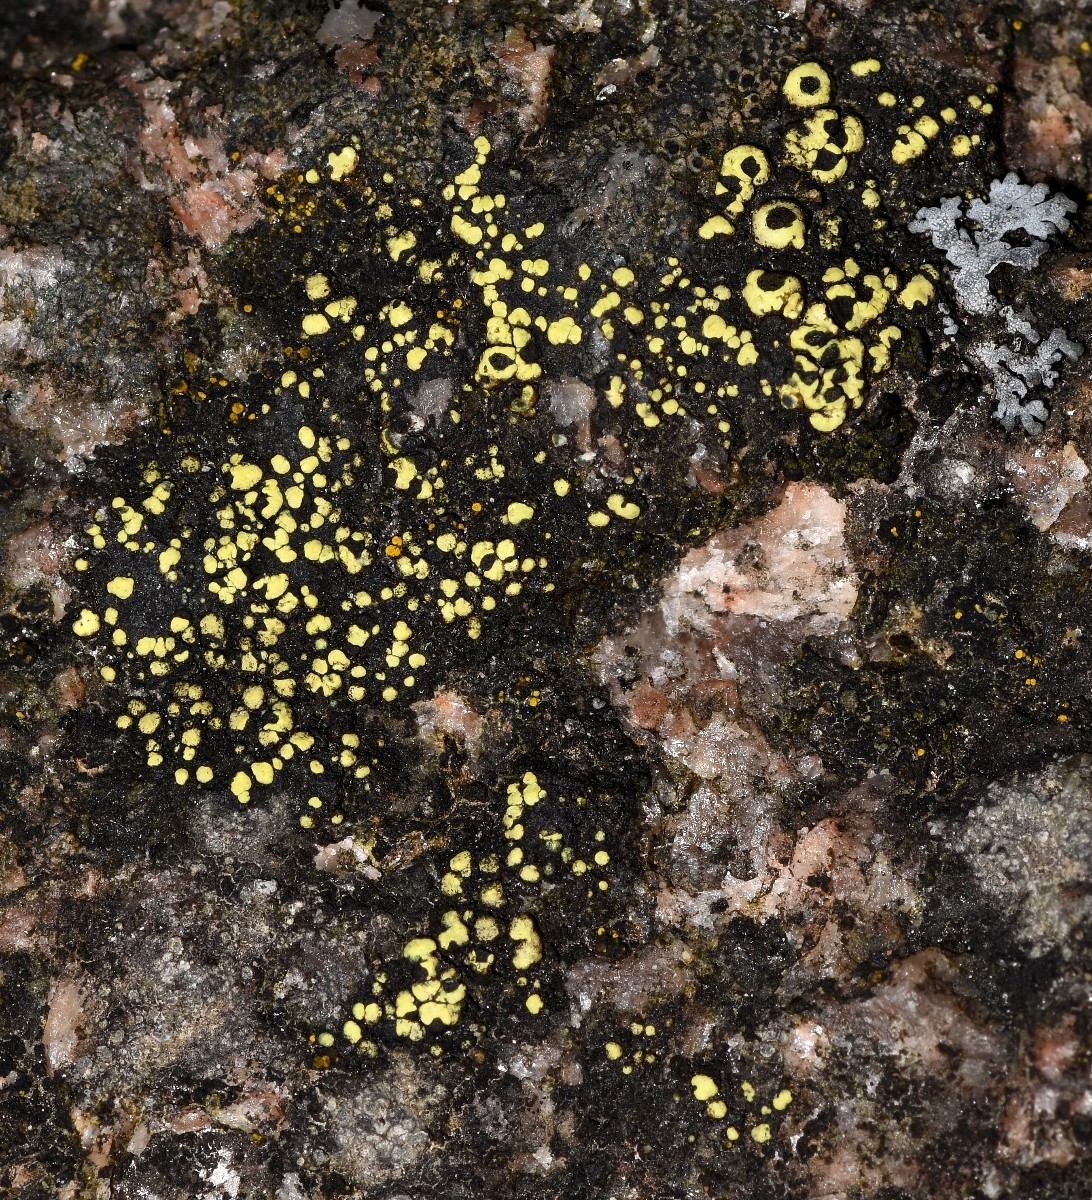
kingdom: Fungi
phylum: Ascomycota
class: Lecanoromycetes
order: Rhizocarpales
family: Rhizocarpaceae
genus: Rhizocarpon
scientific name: Rhizocarpon lecanorinum
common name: krave-landkortlav
